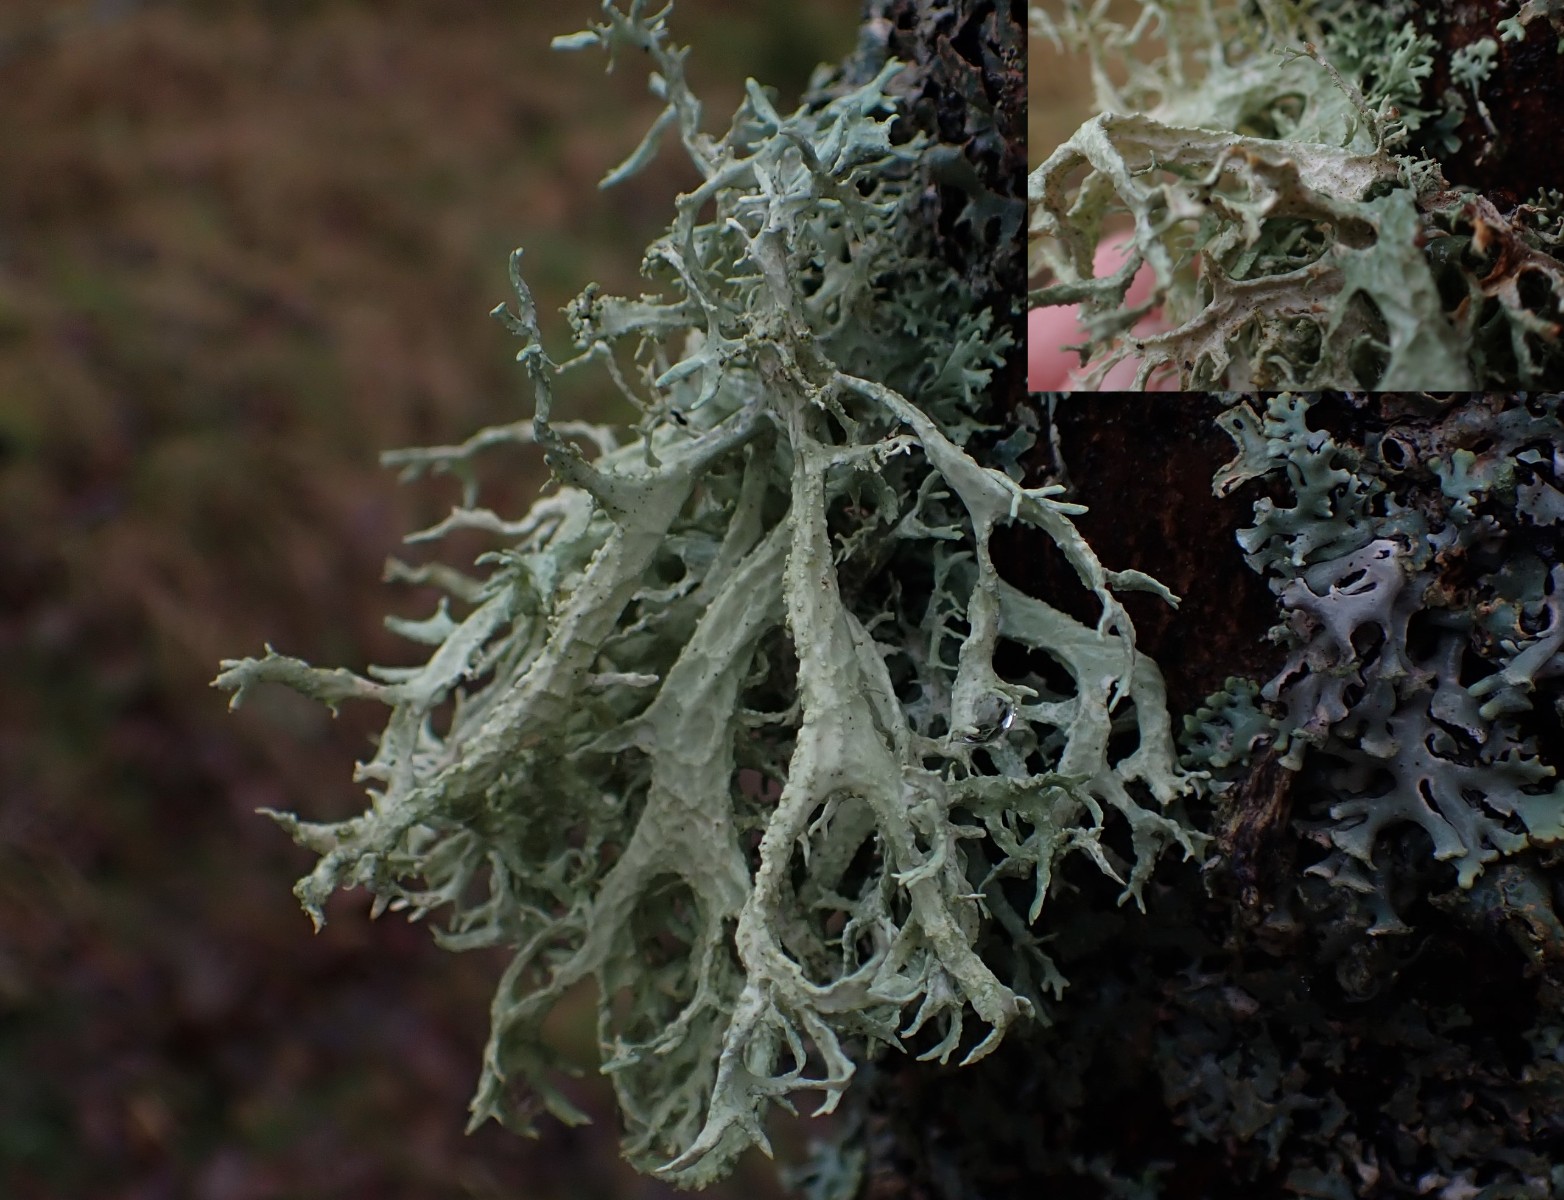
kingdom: Fungi
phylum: Ascomycota
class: Lecanoromycetes
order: Lecanorales
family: Parmeliaceae
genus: Evernia
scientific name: Evernia prunastri
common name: almindelig slåenlav
